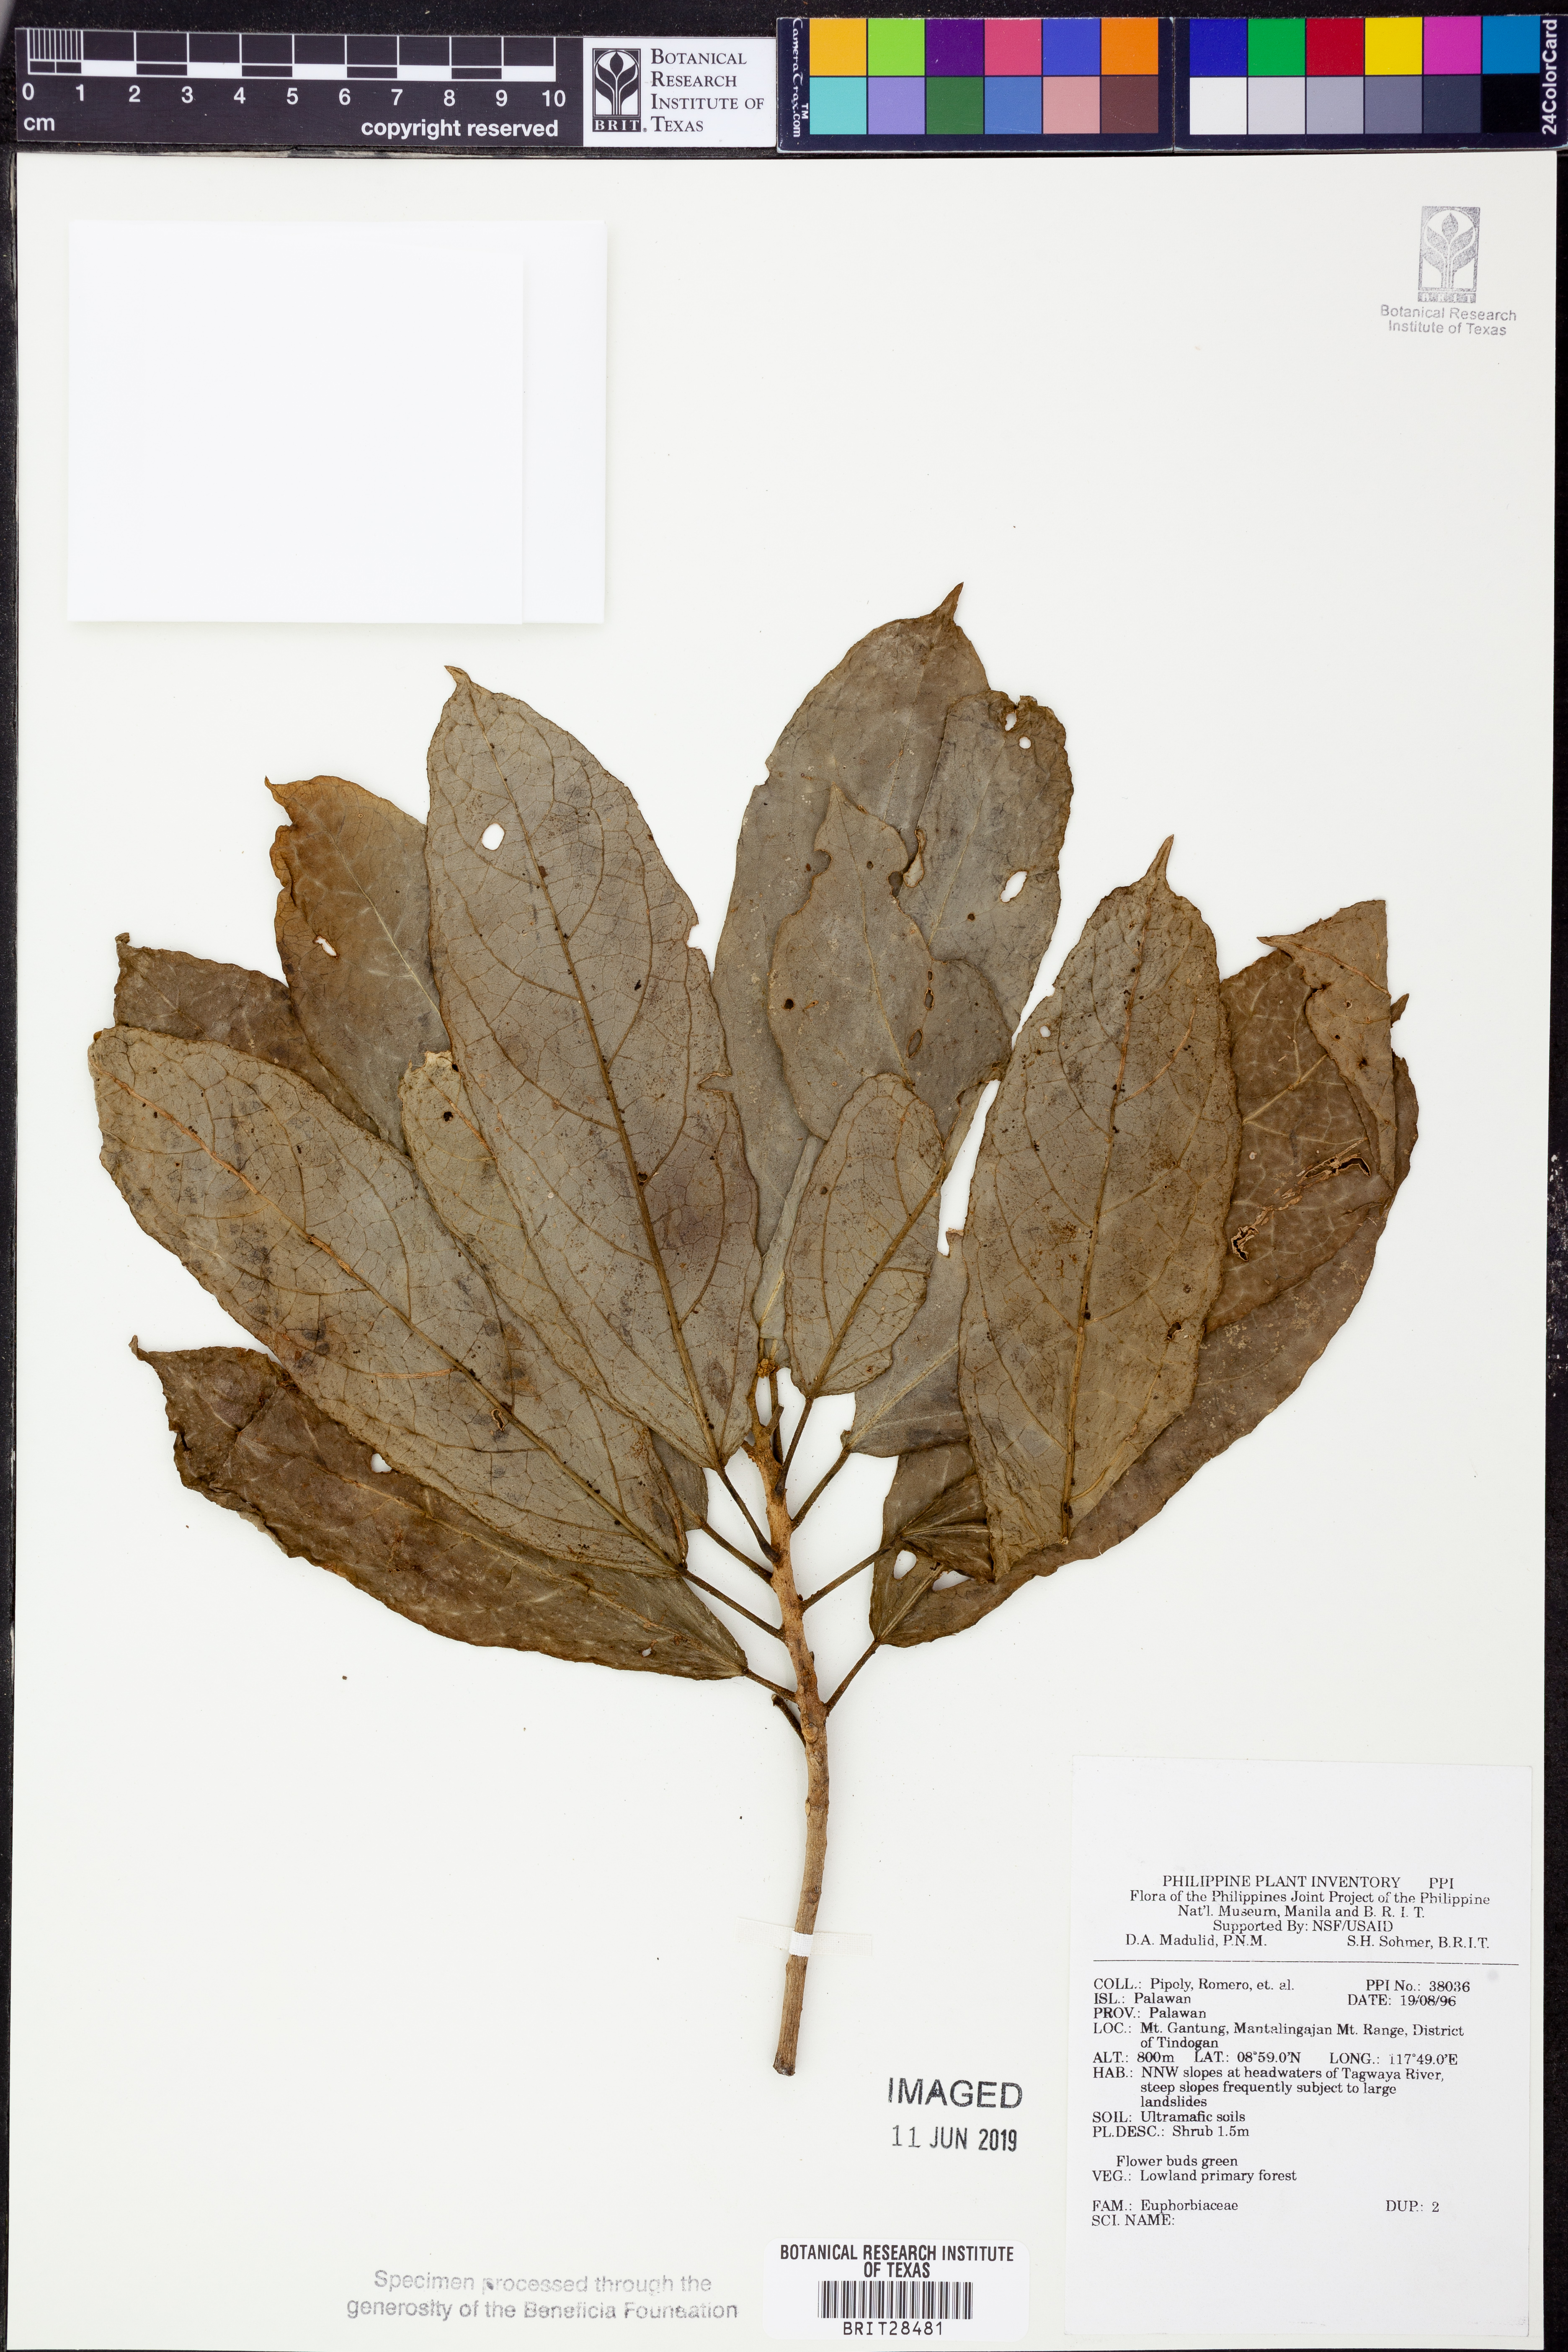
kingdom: Plantae
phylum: Tracheophyta
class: Magnoliopsida
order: Malpighiales
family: Euphorbiaceae
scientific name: Euphorbiaceae
